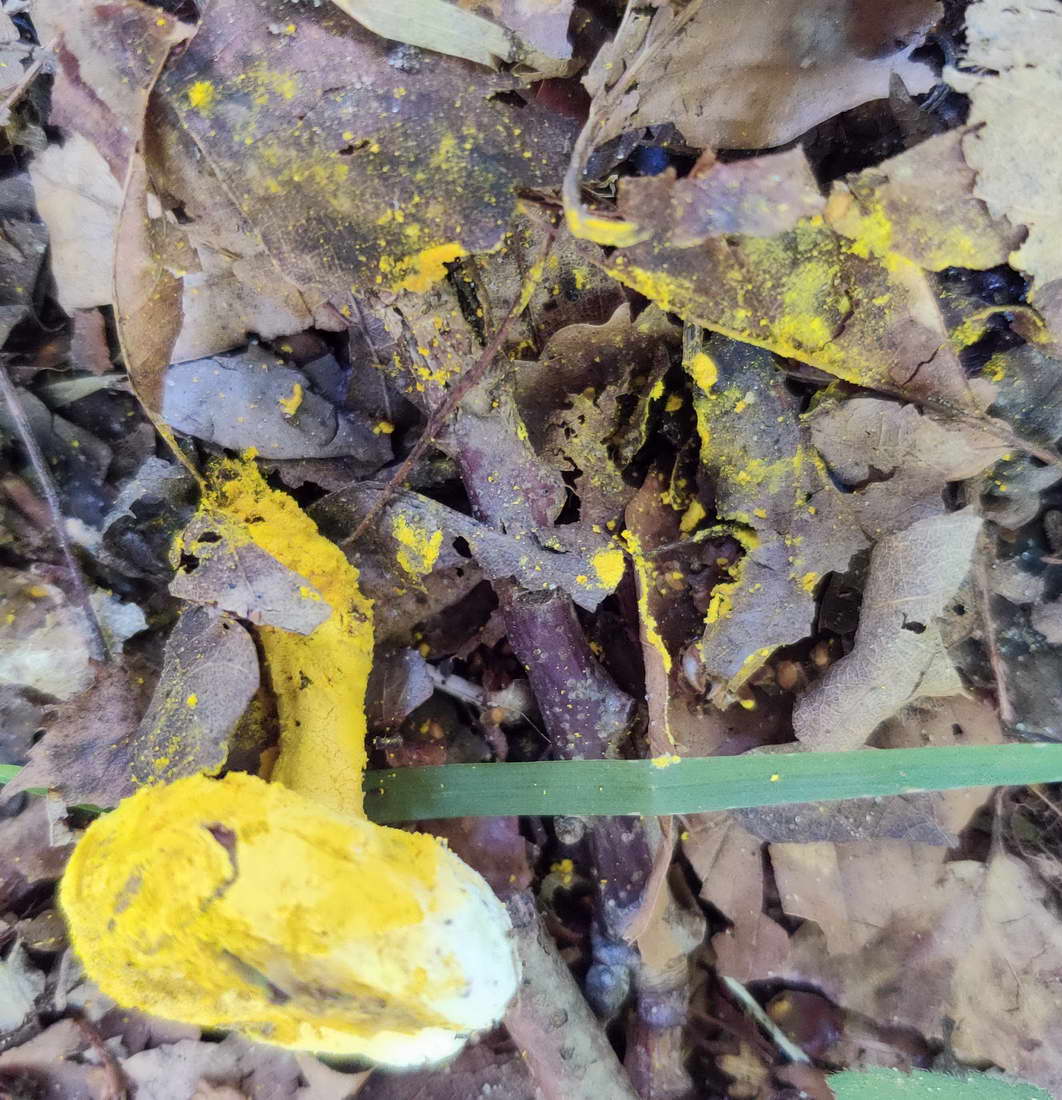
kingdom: Fungi
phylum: Ascomycota
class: Sordariomycetes
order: Hypocreales
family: Hypocreaceae
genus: Hypomyces
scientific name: Hypomyces microspermus
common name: dværgrørhat-snylteskorpe
